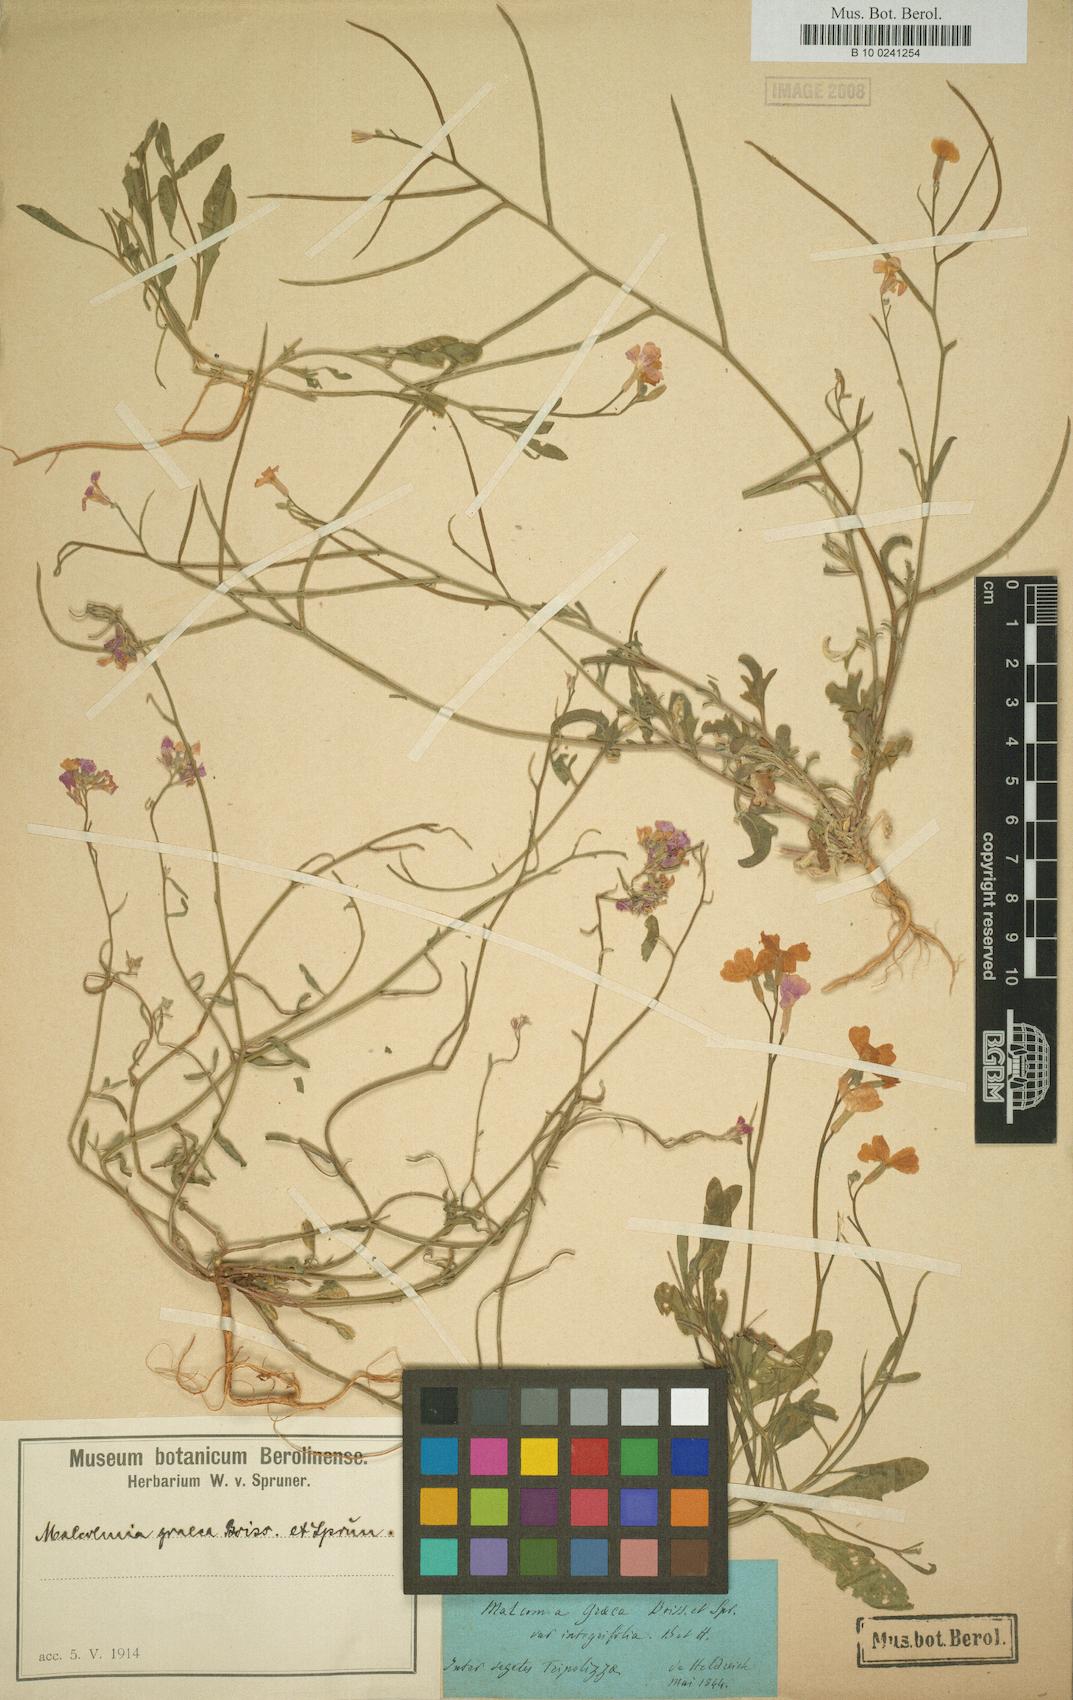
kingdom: Plantae
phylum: Tracheophyta
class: Magnoliopsida
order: Brassicales
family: Brassicaceae
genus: Malcolmia
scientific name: Malcolmia graeca
